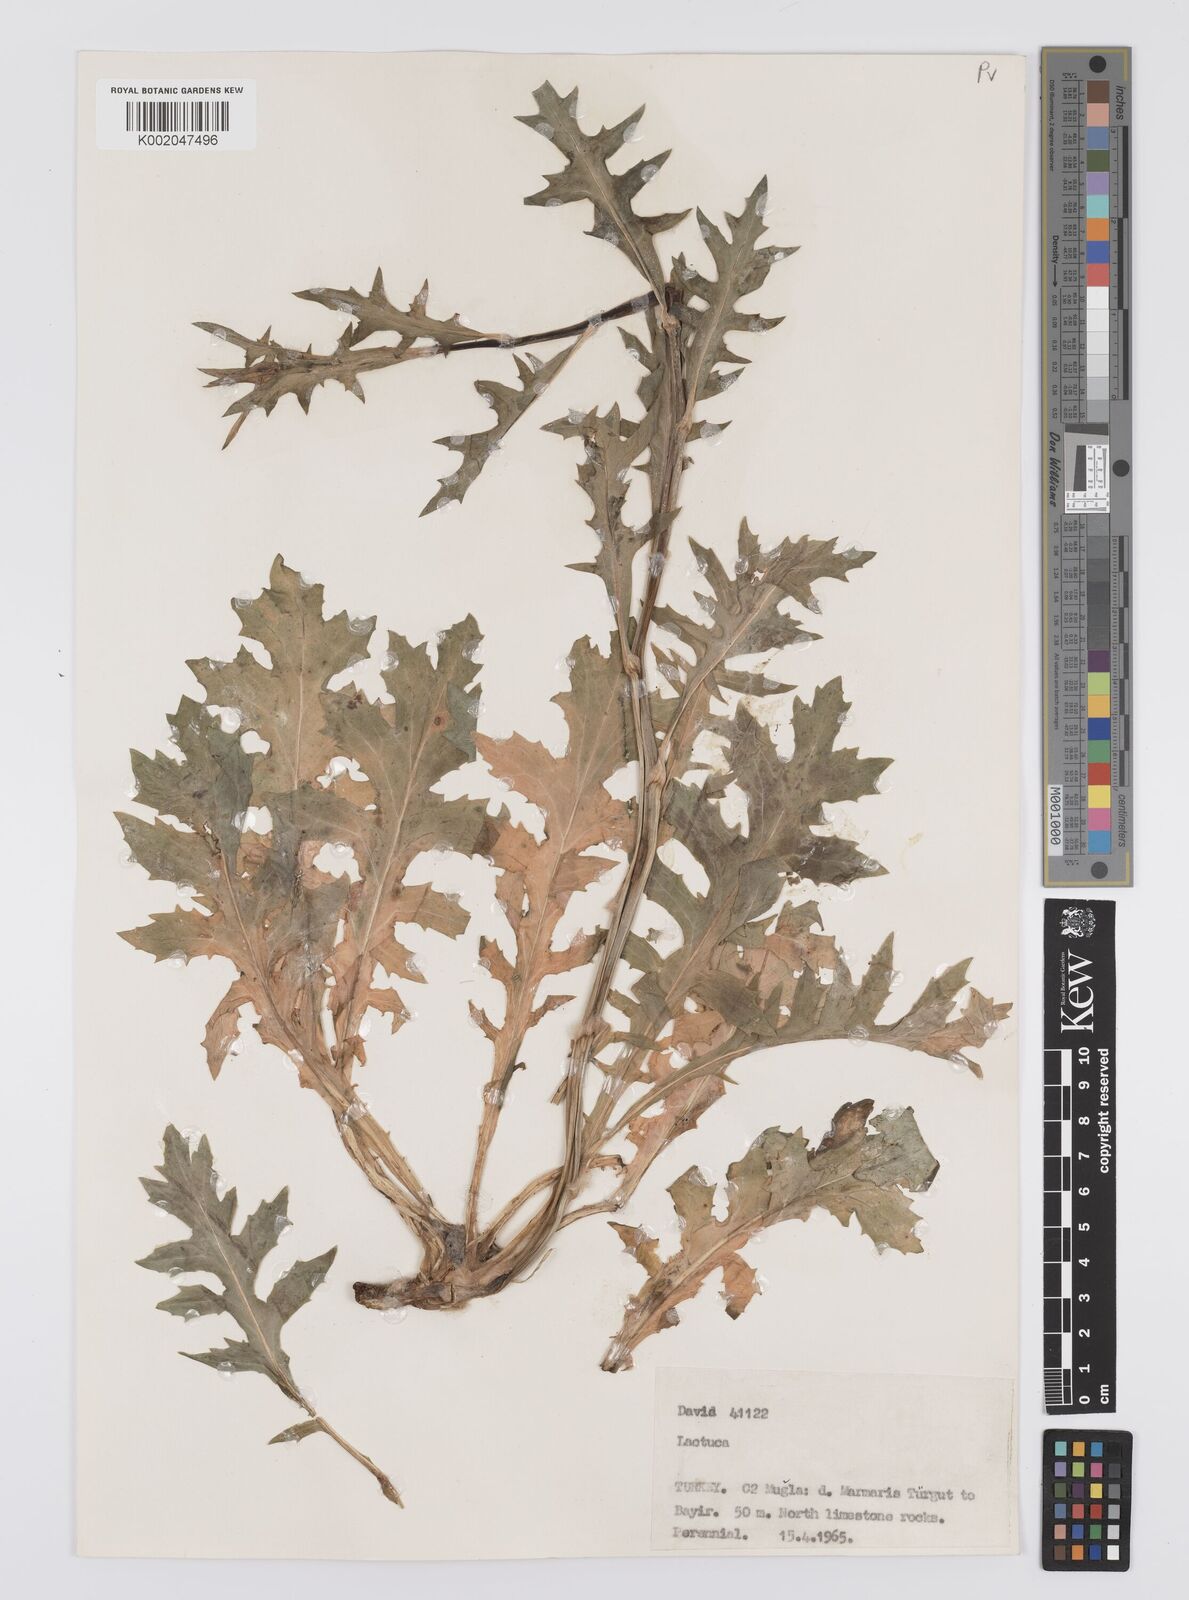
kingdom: Plantae
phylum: Tracheophyta
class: Magnoliopsida
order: Asterales
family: Asteraceae
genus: Lactuca
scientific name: Lactuca acanthifolia
